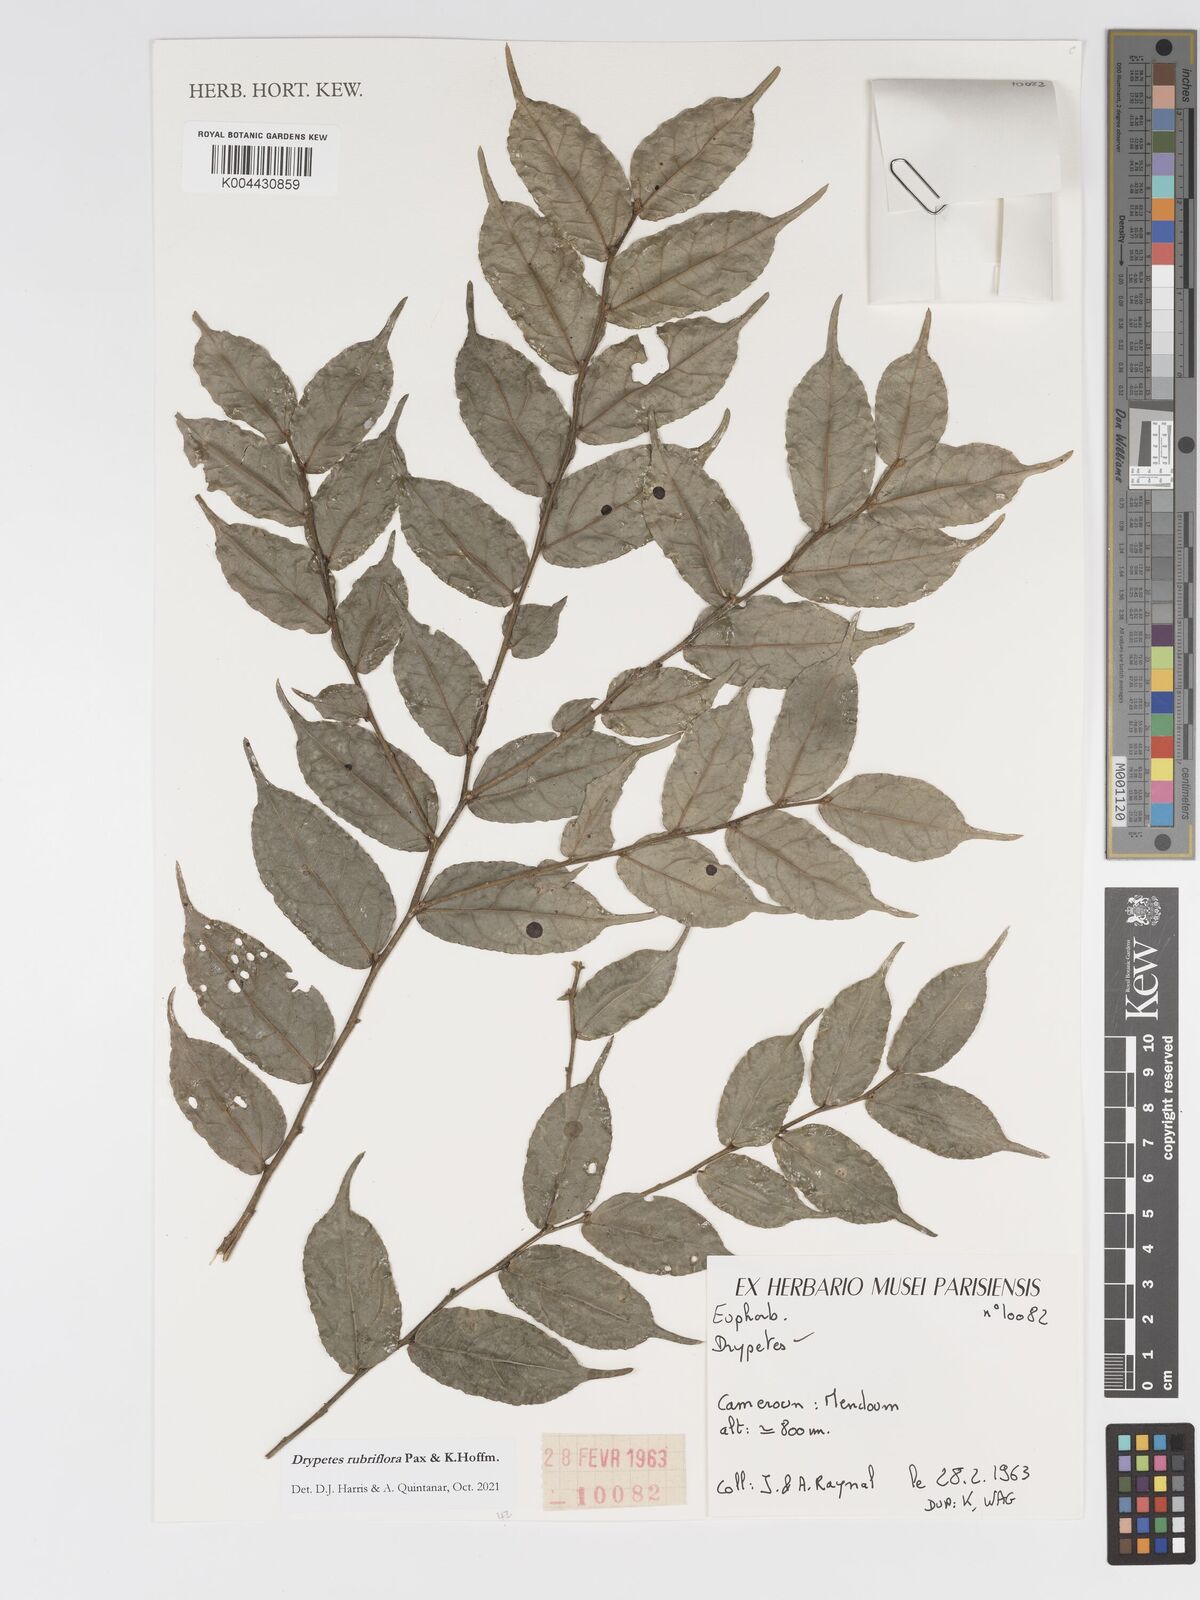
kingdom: Plantae
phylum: Tracheophyta
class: Magnoliopsida
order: Malpighiales
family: Putranjivaceae
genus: Drypetes
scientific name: Drypetes rubriflora
